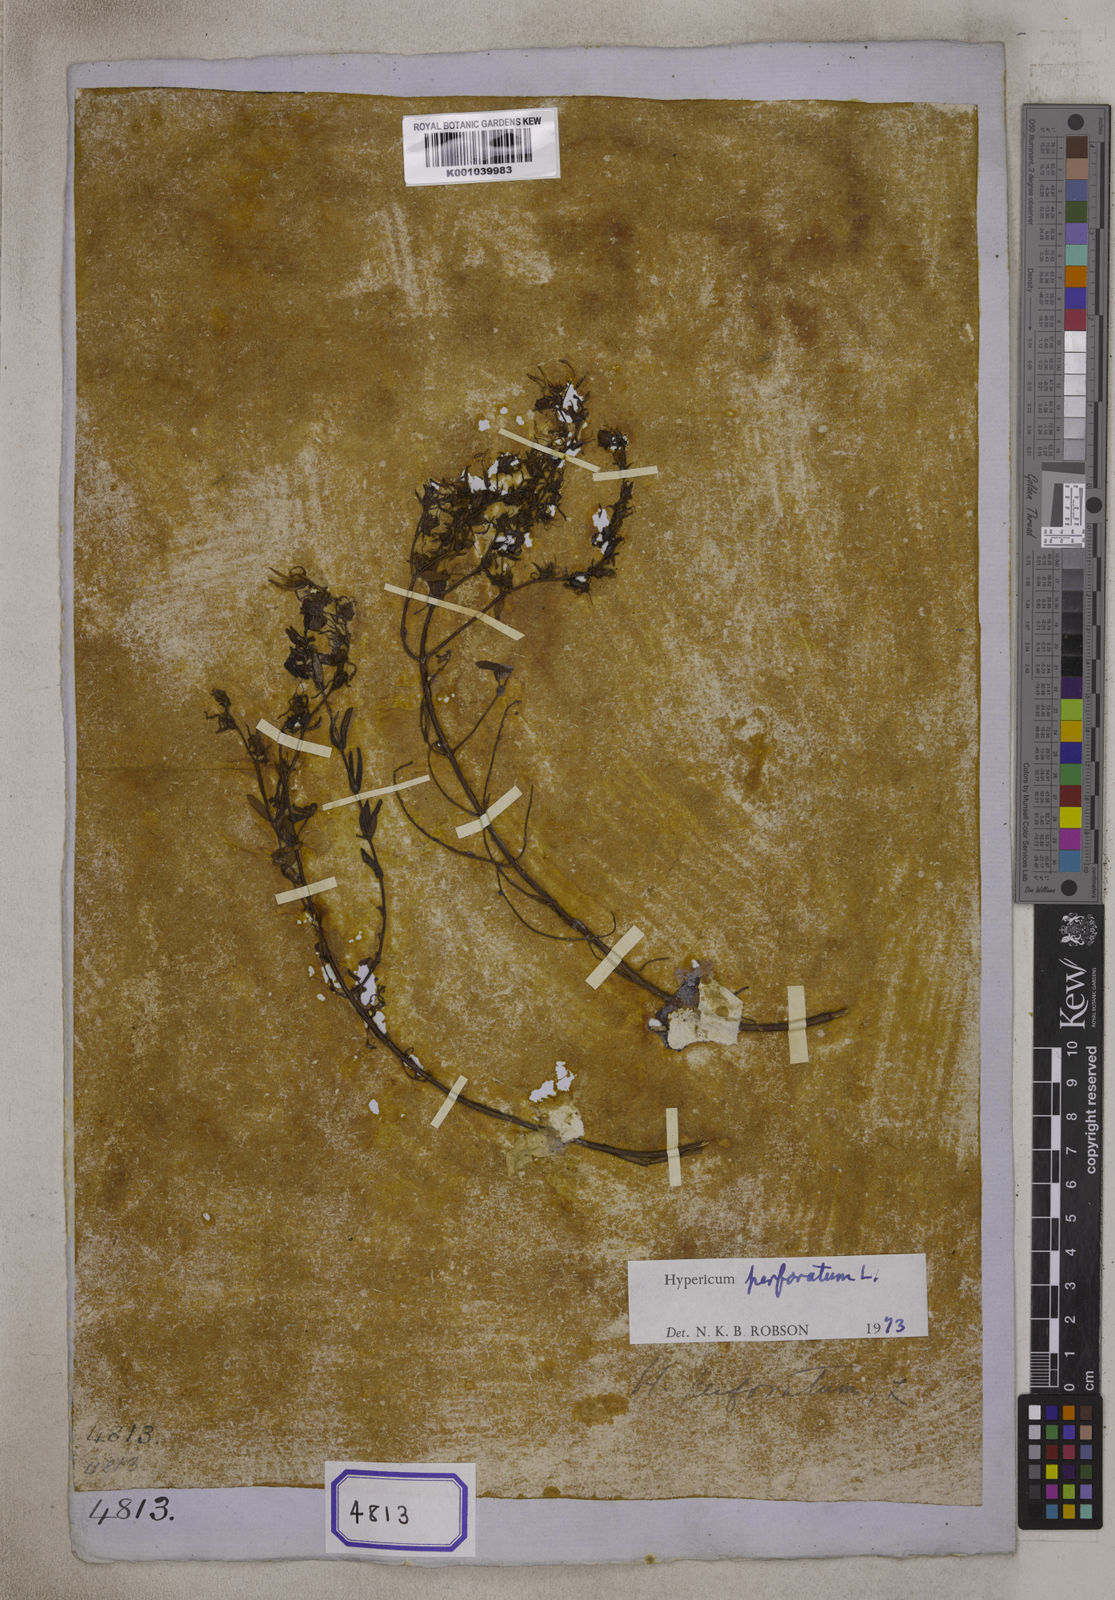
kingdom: Plantae
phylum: Tracheophyta
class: Magnoliopsida
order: Malpighiales
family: Hypericaceae
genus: Hypericum
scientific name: Hypericum perforatum
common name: Common st. johnswort
